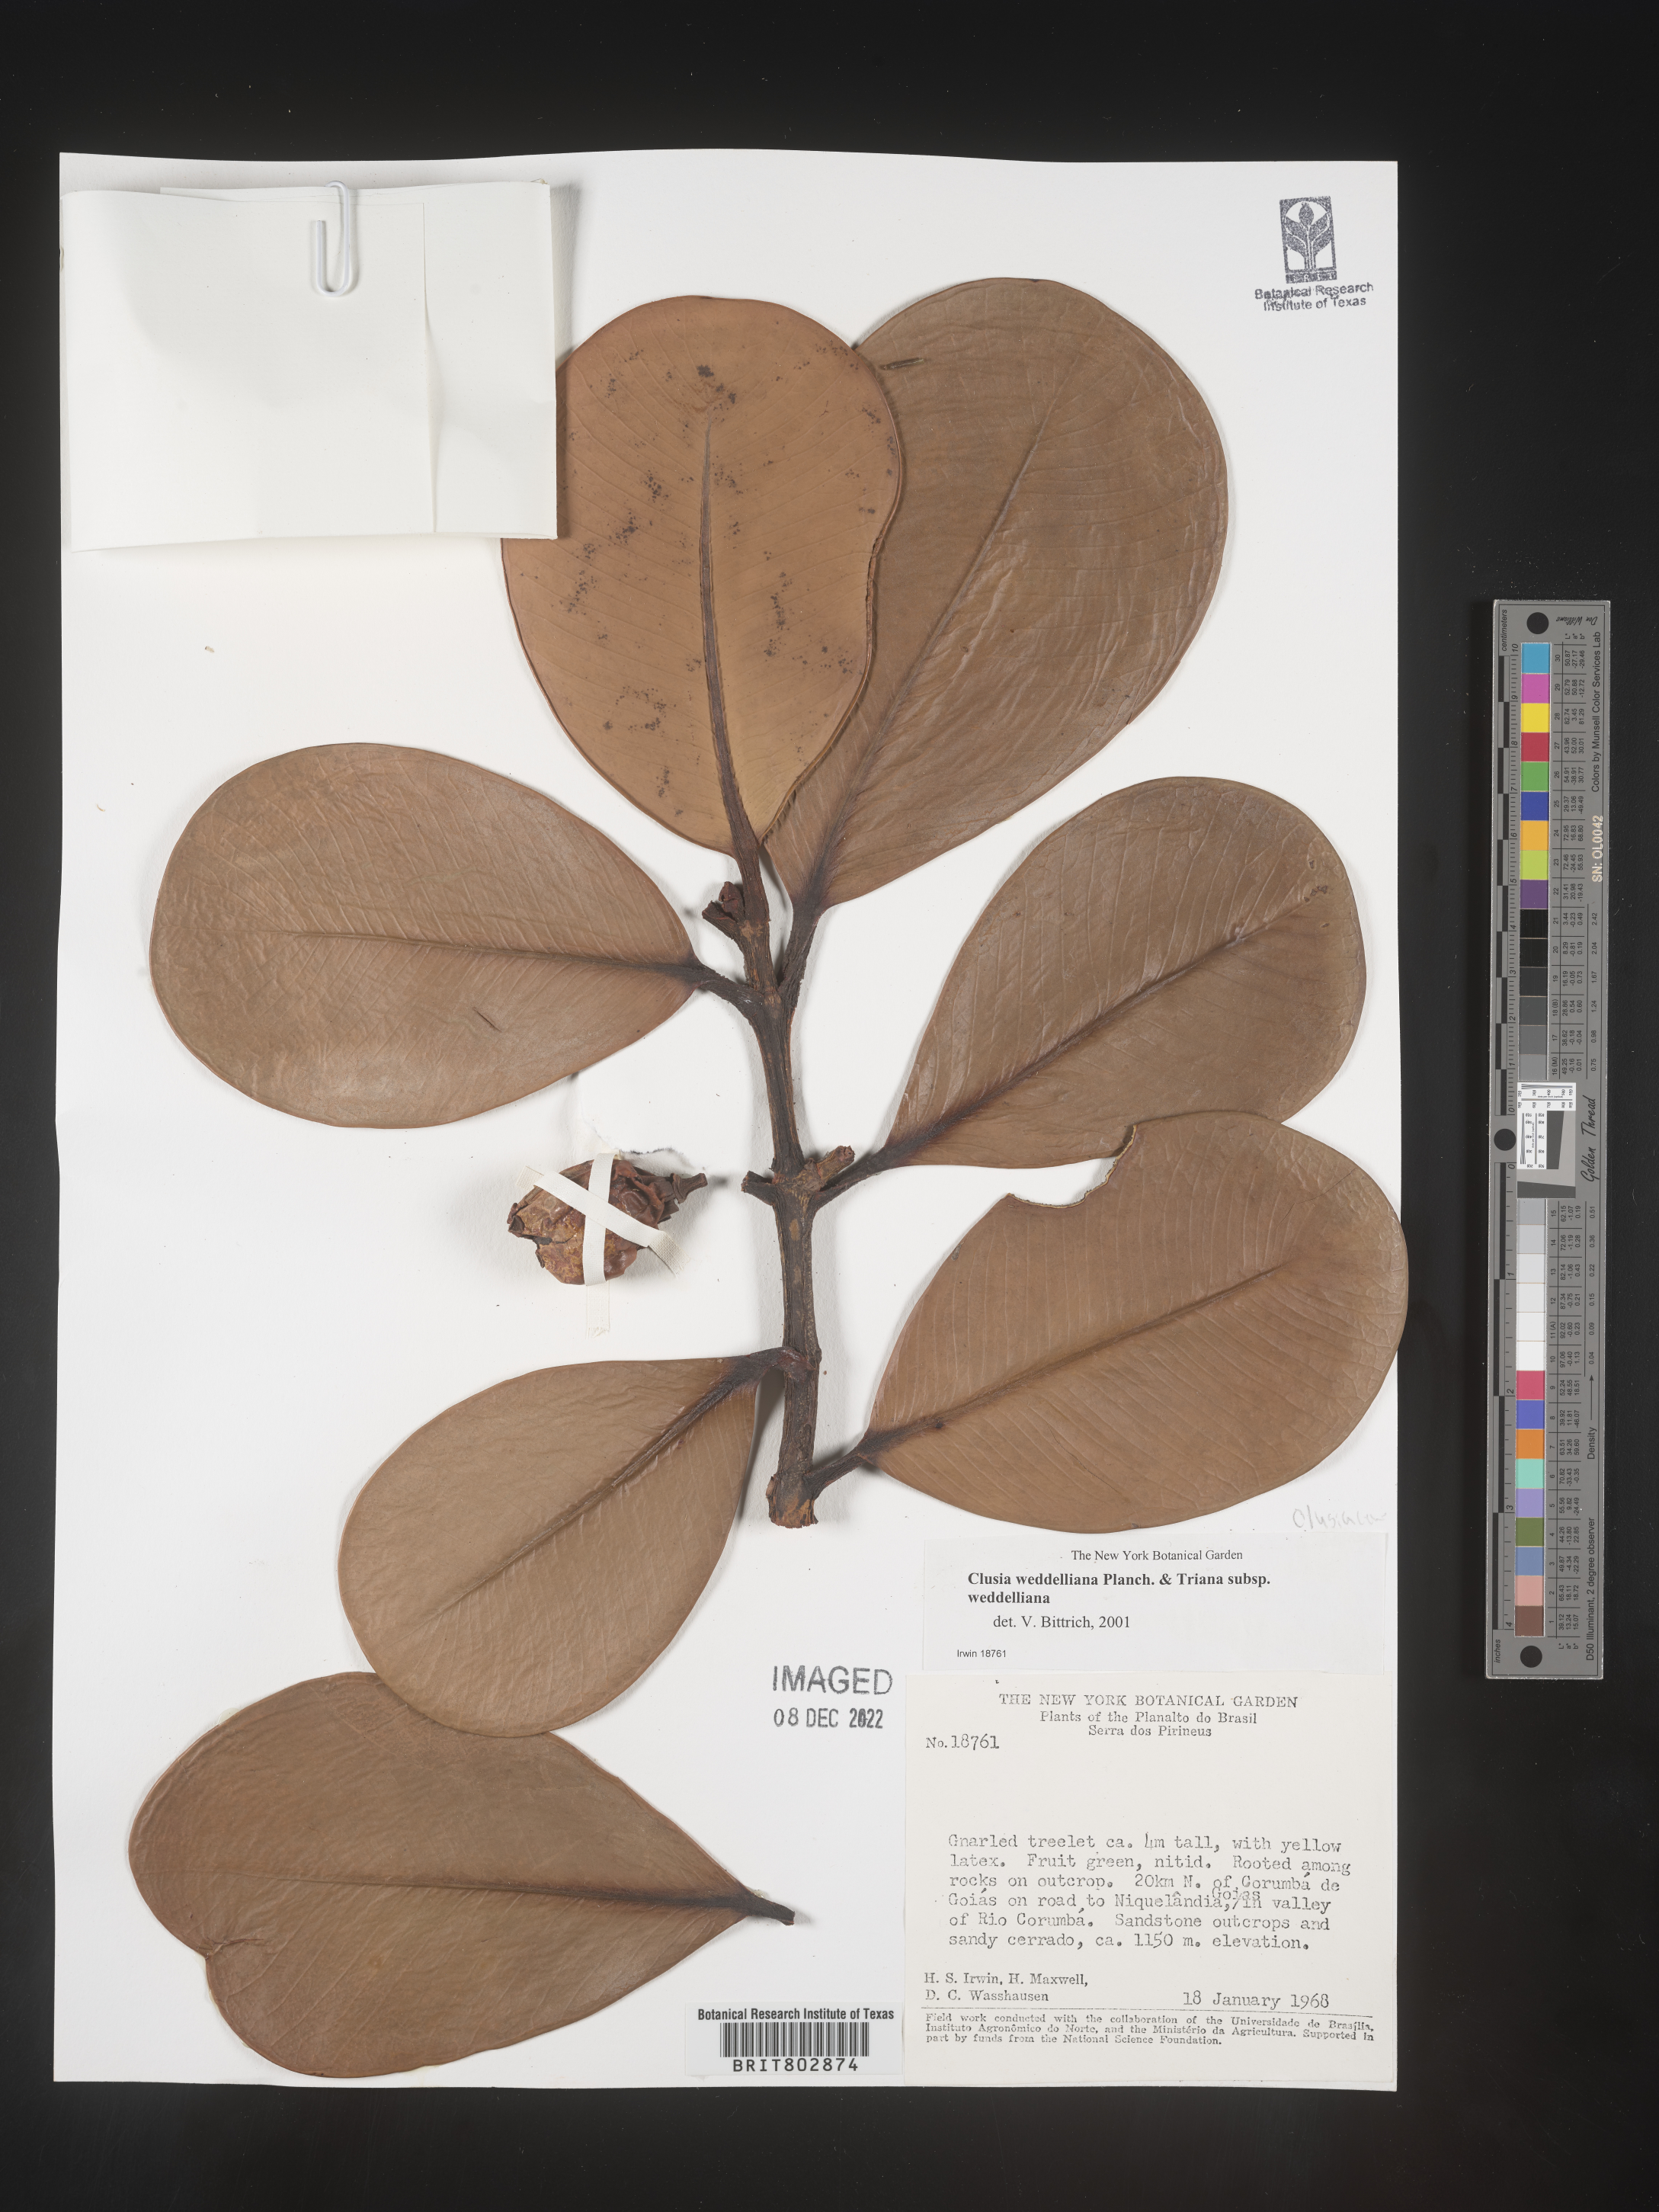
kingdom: Plantae
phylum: Tracheophyta
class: Magnoliopsida
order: Malpighiales
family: Clusiaceae
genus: Clusia
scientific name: Clusia
